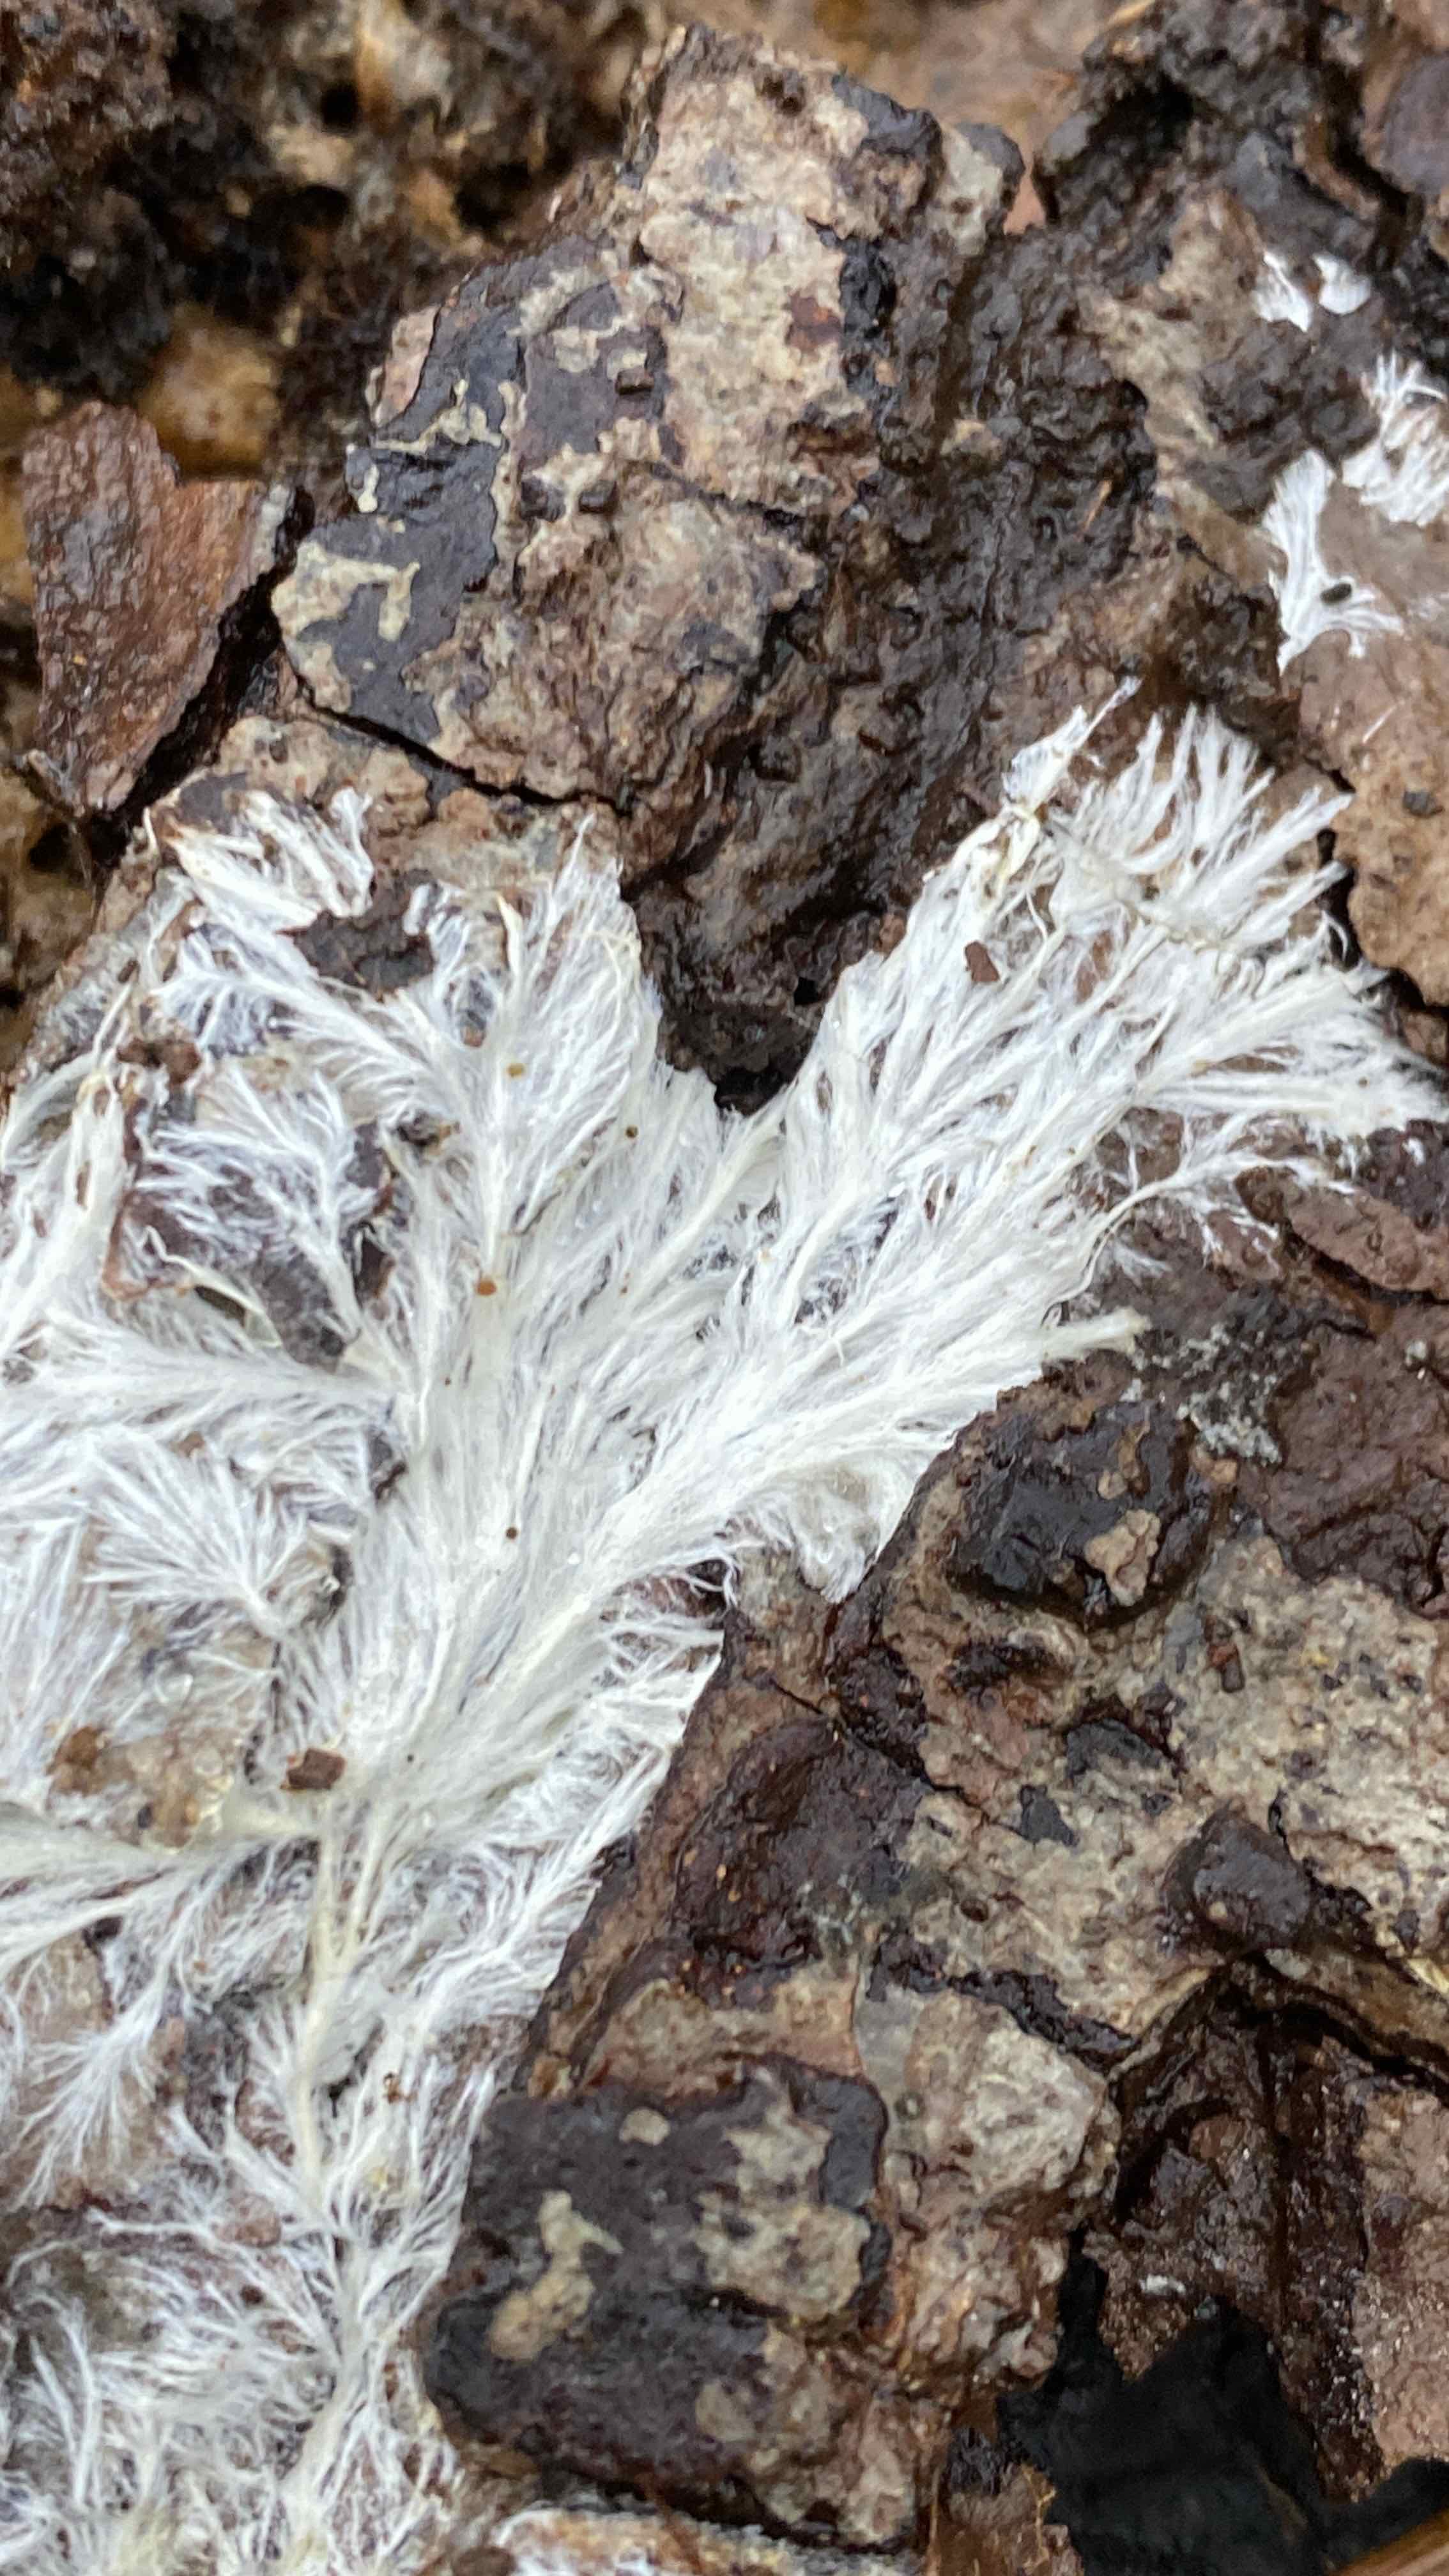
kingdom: Fungi
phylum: Basidiomycota
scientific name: Basidiomycota
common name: basidiesvampe
